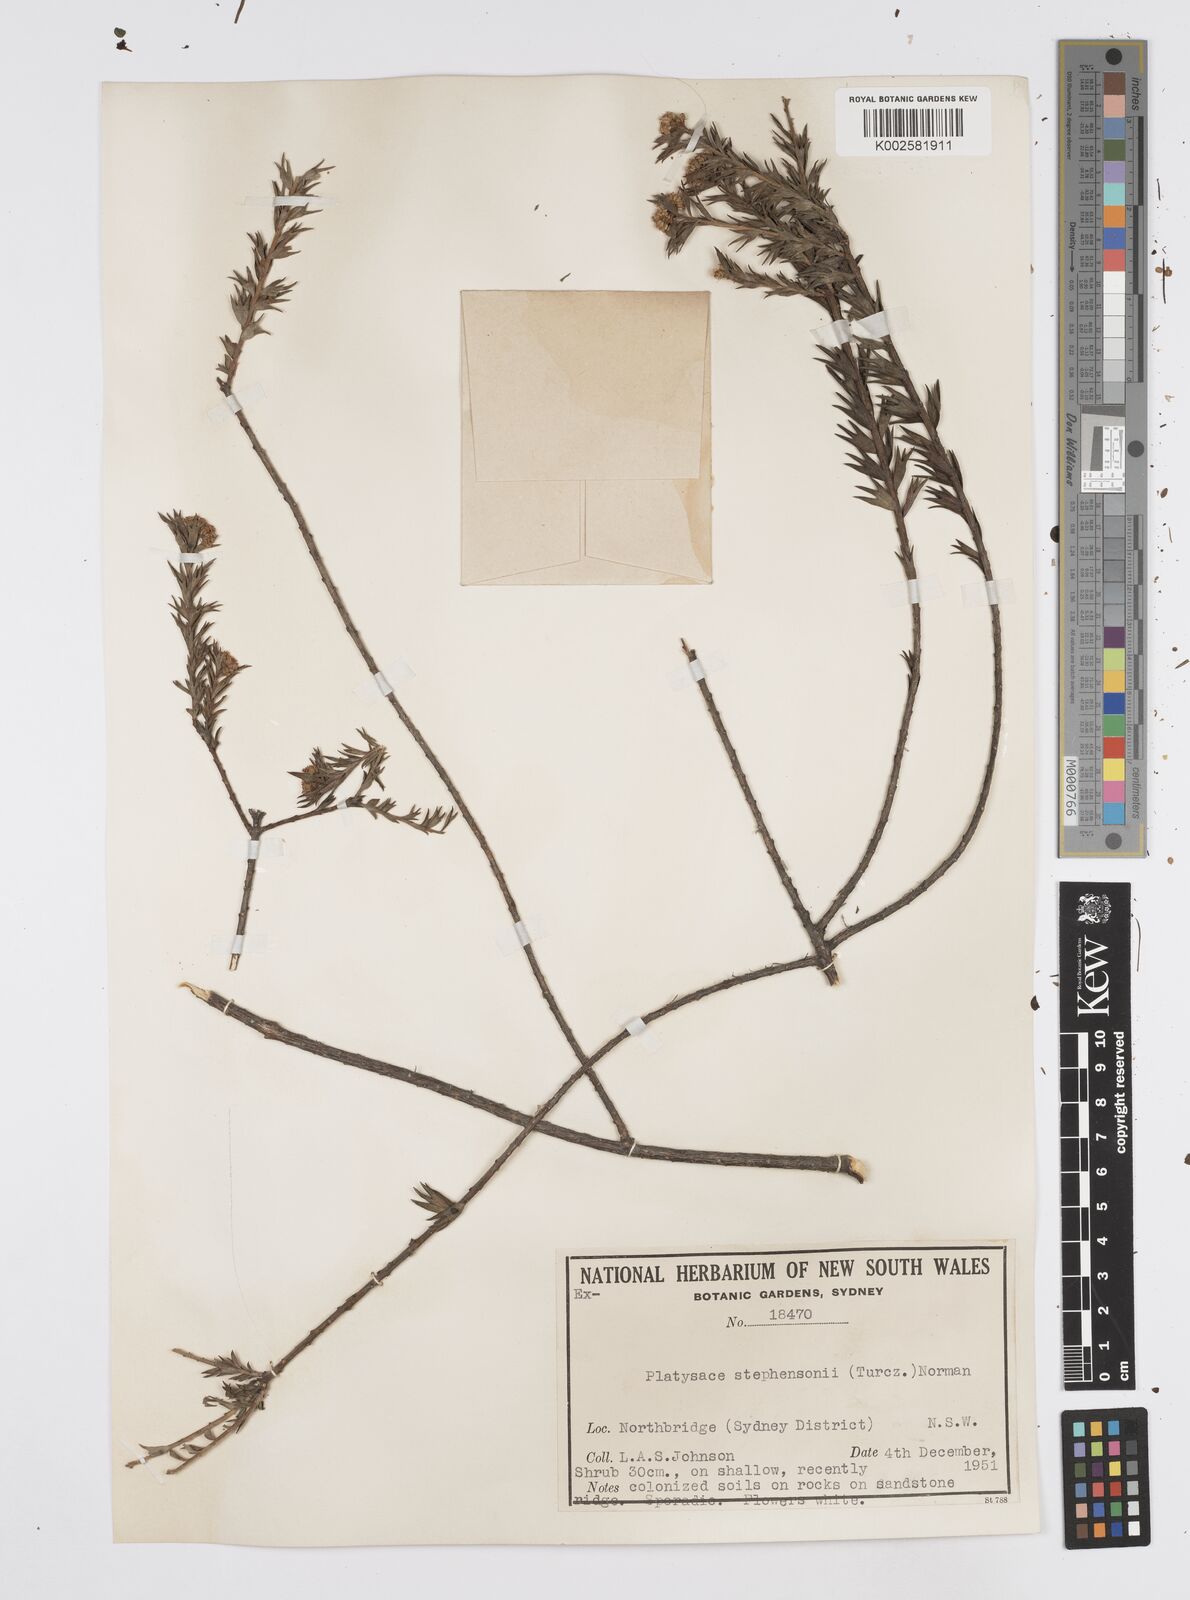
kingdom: Plantae
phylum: Tracheophyta
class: Magnoliopsida
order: Apiales
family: Apiaceae
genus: Platysace
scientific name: Platysace stephensonii
